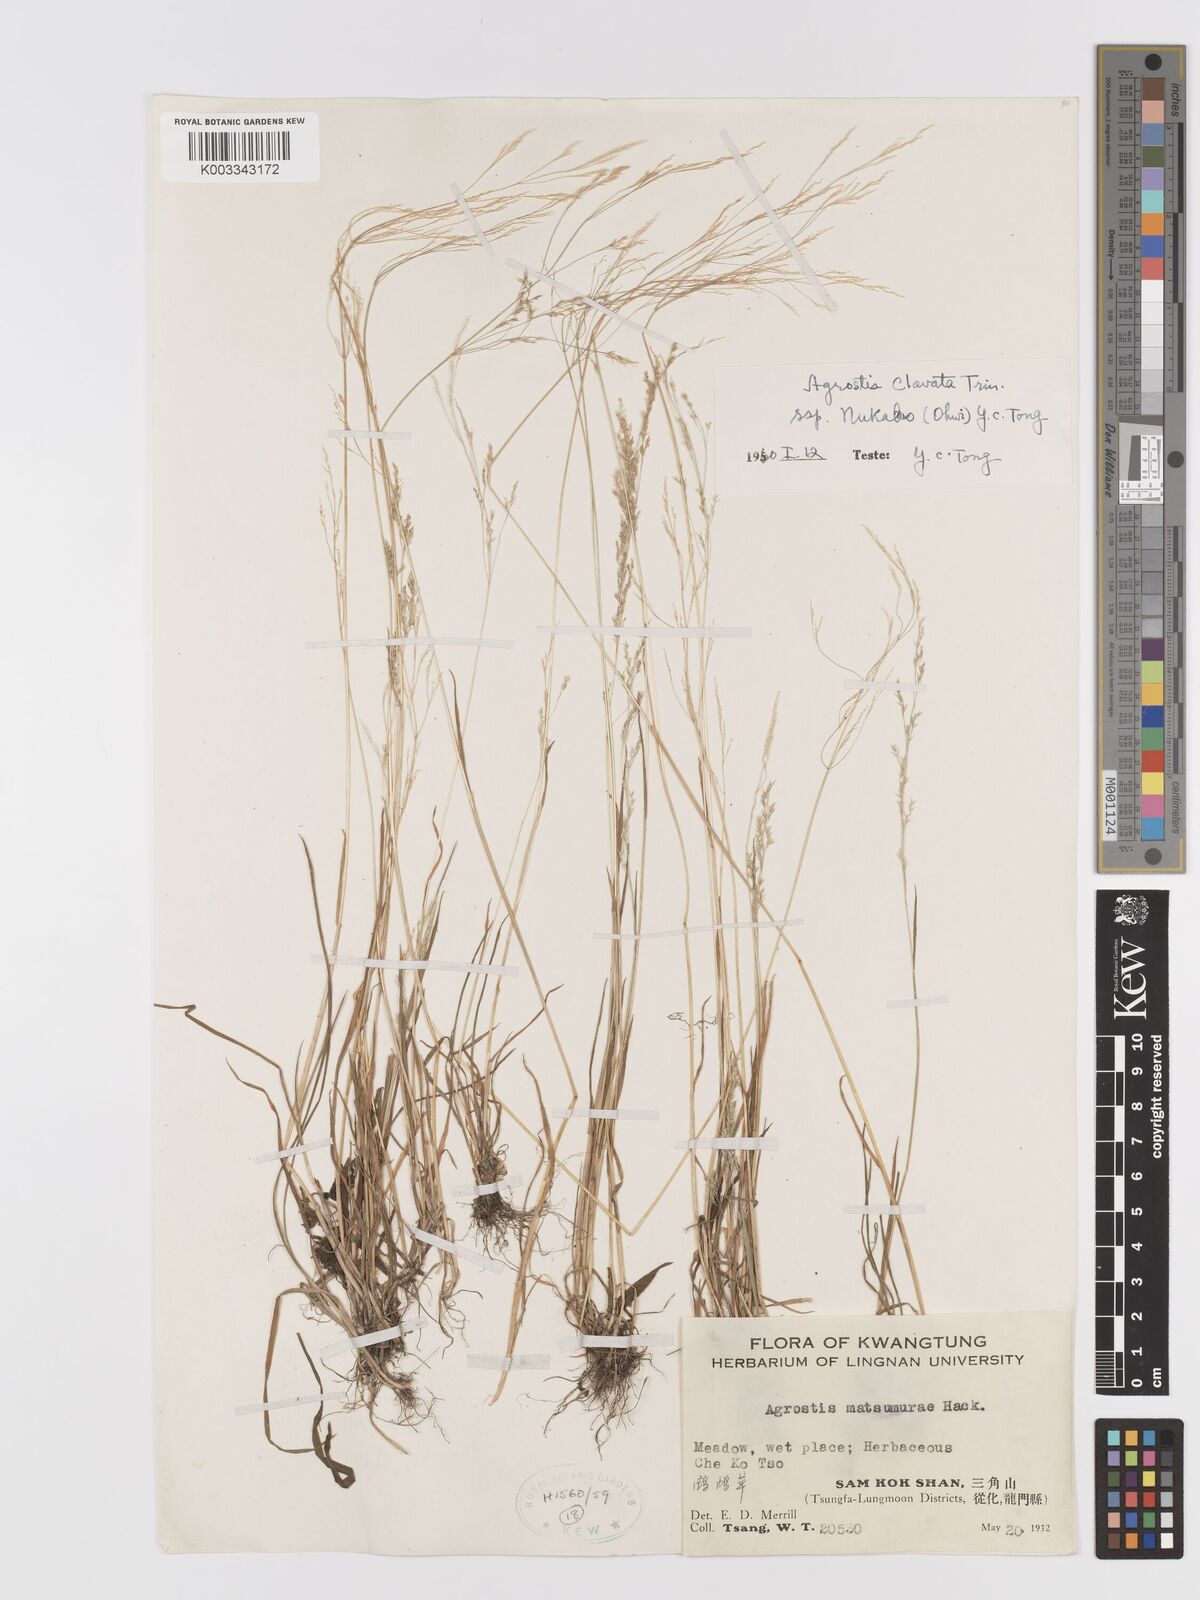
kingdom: Plantae
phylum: Tracheophyta
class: Liliopsida
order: Poales
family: Poaceae
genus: Agrostis
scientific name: Agrostis clavata
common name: Clavate bent
